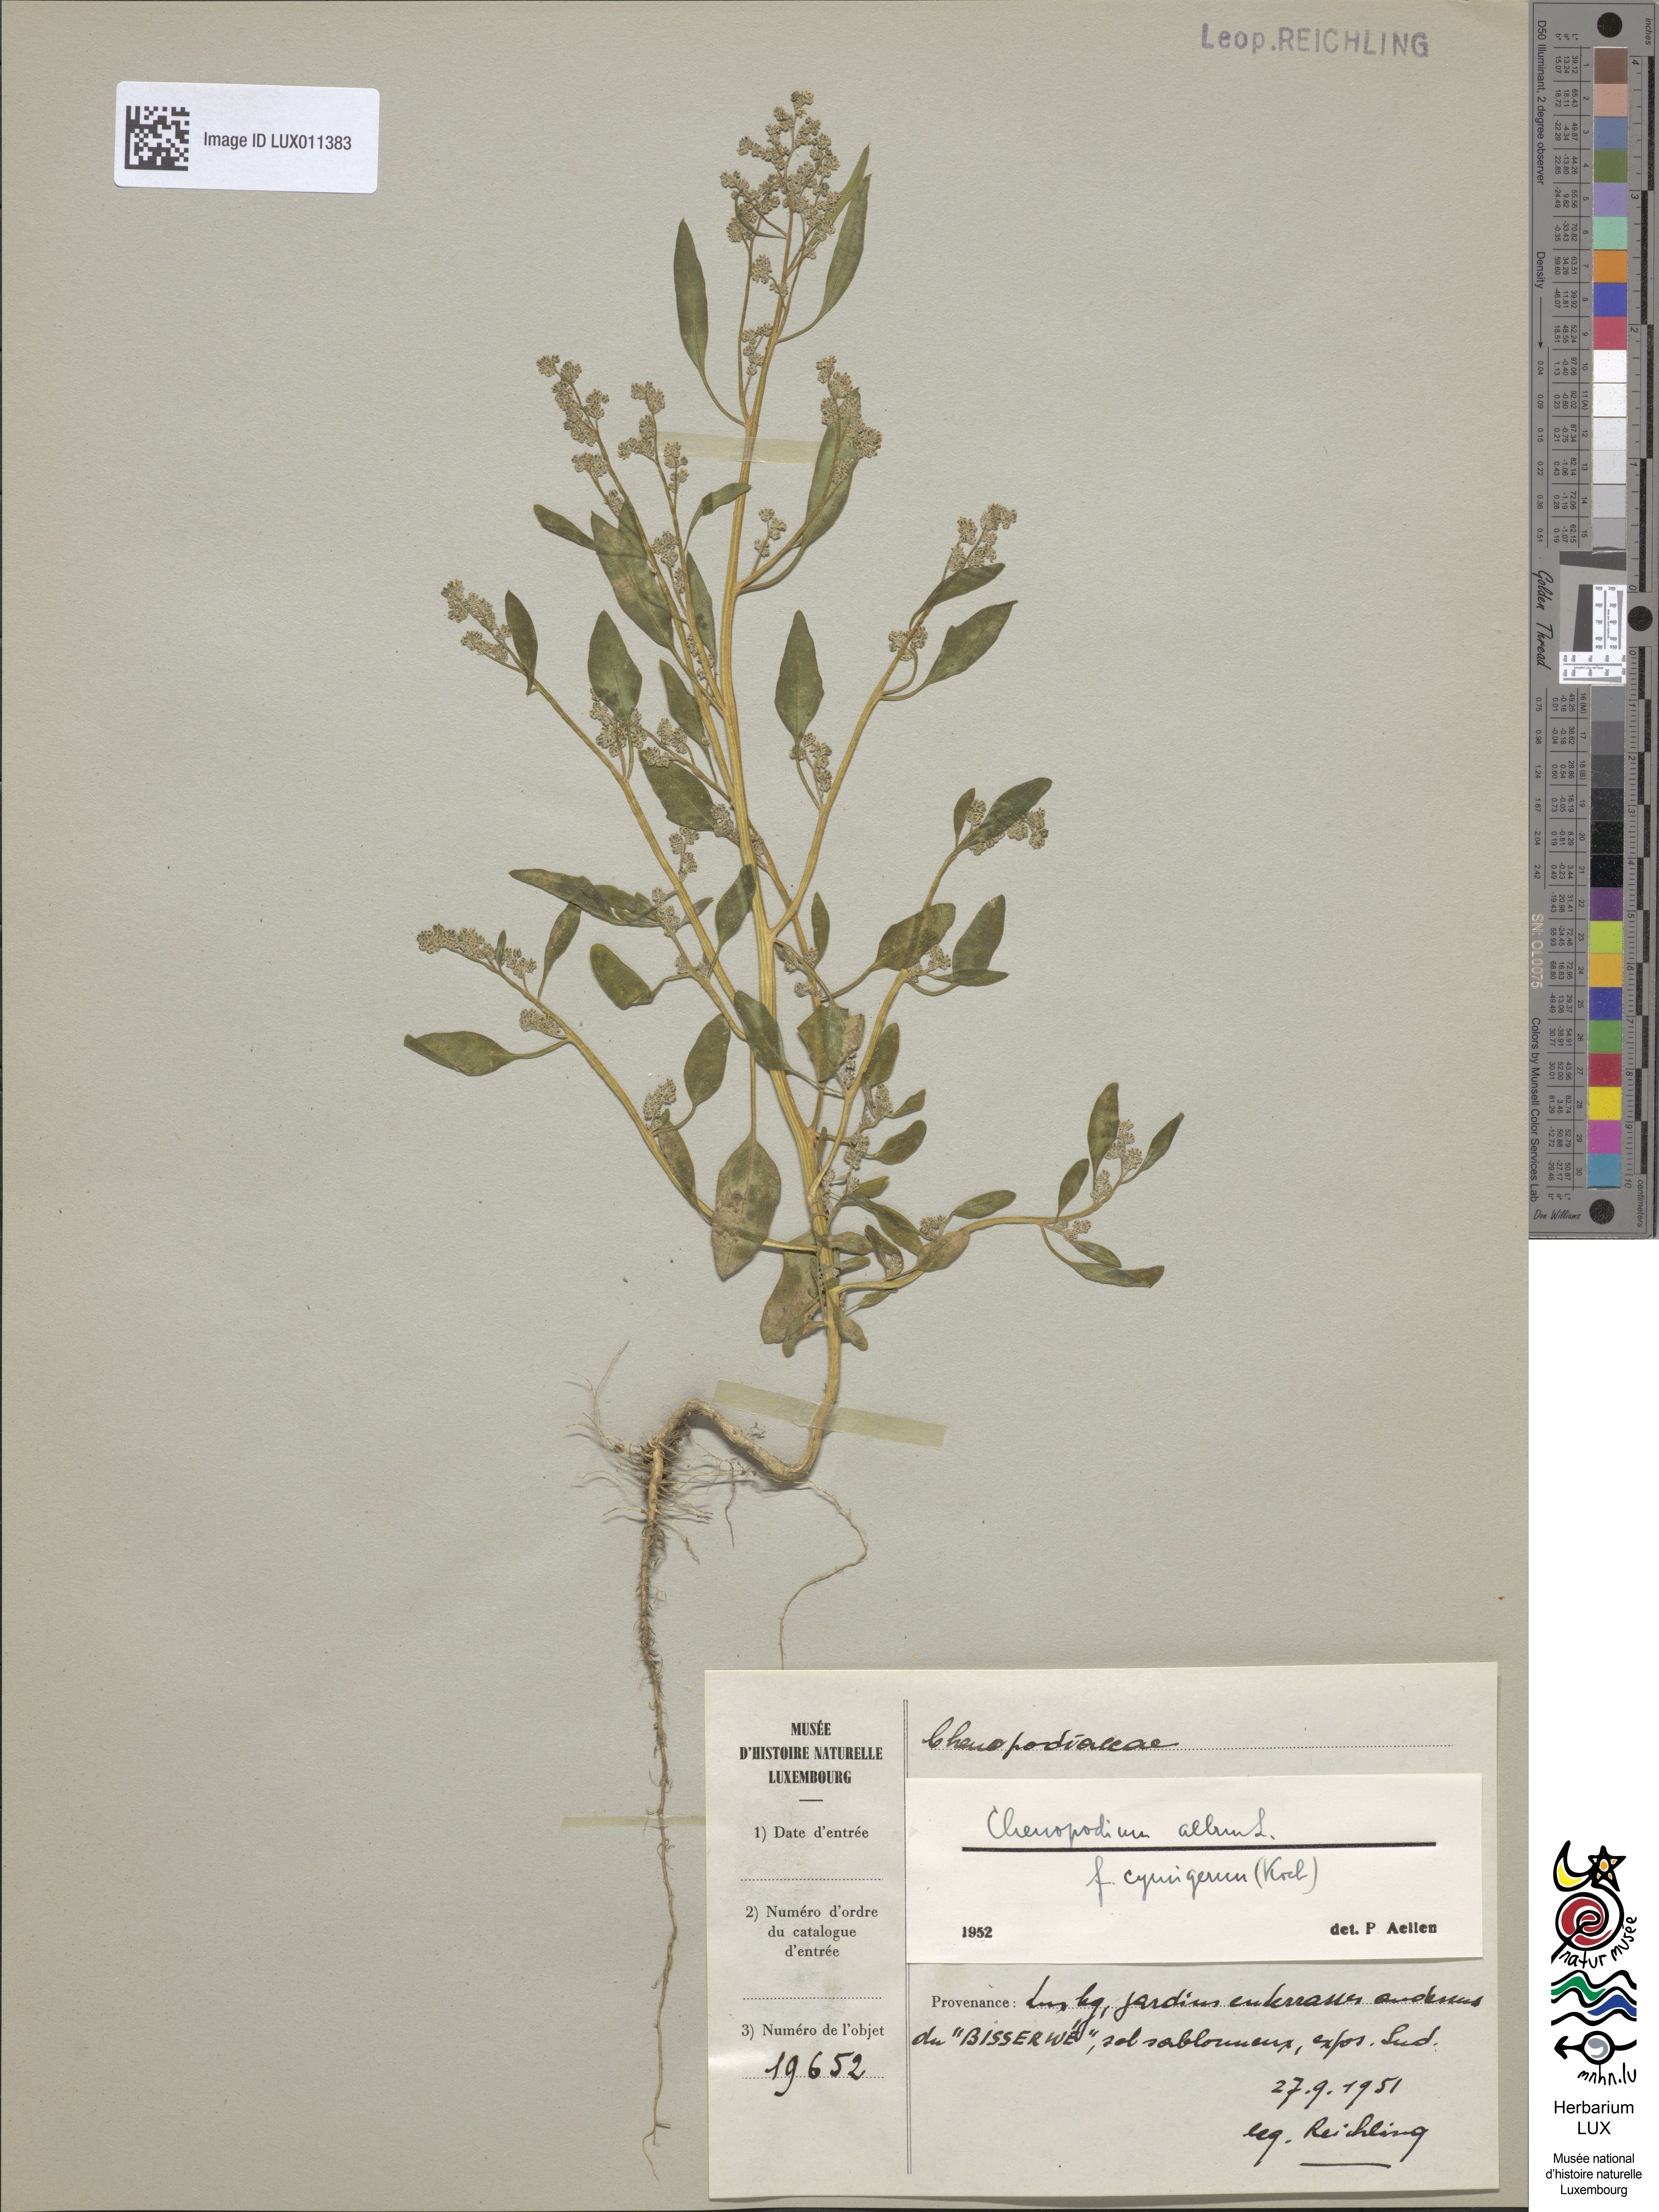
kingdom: Plantae
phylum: Tracheophyta
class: Magnoliopsida
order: Caryophyllales
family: Amaranthaceae
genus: Chenopodium
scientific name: Chenopodium
